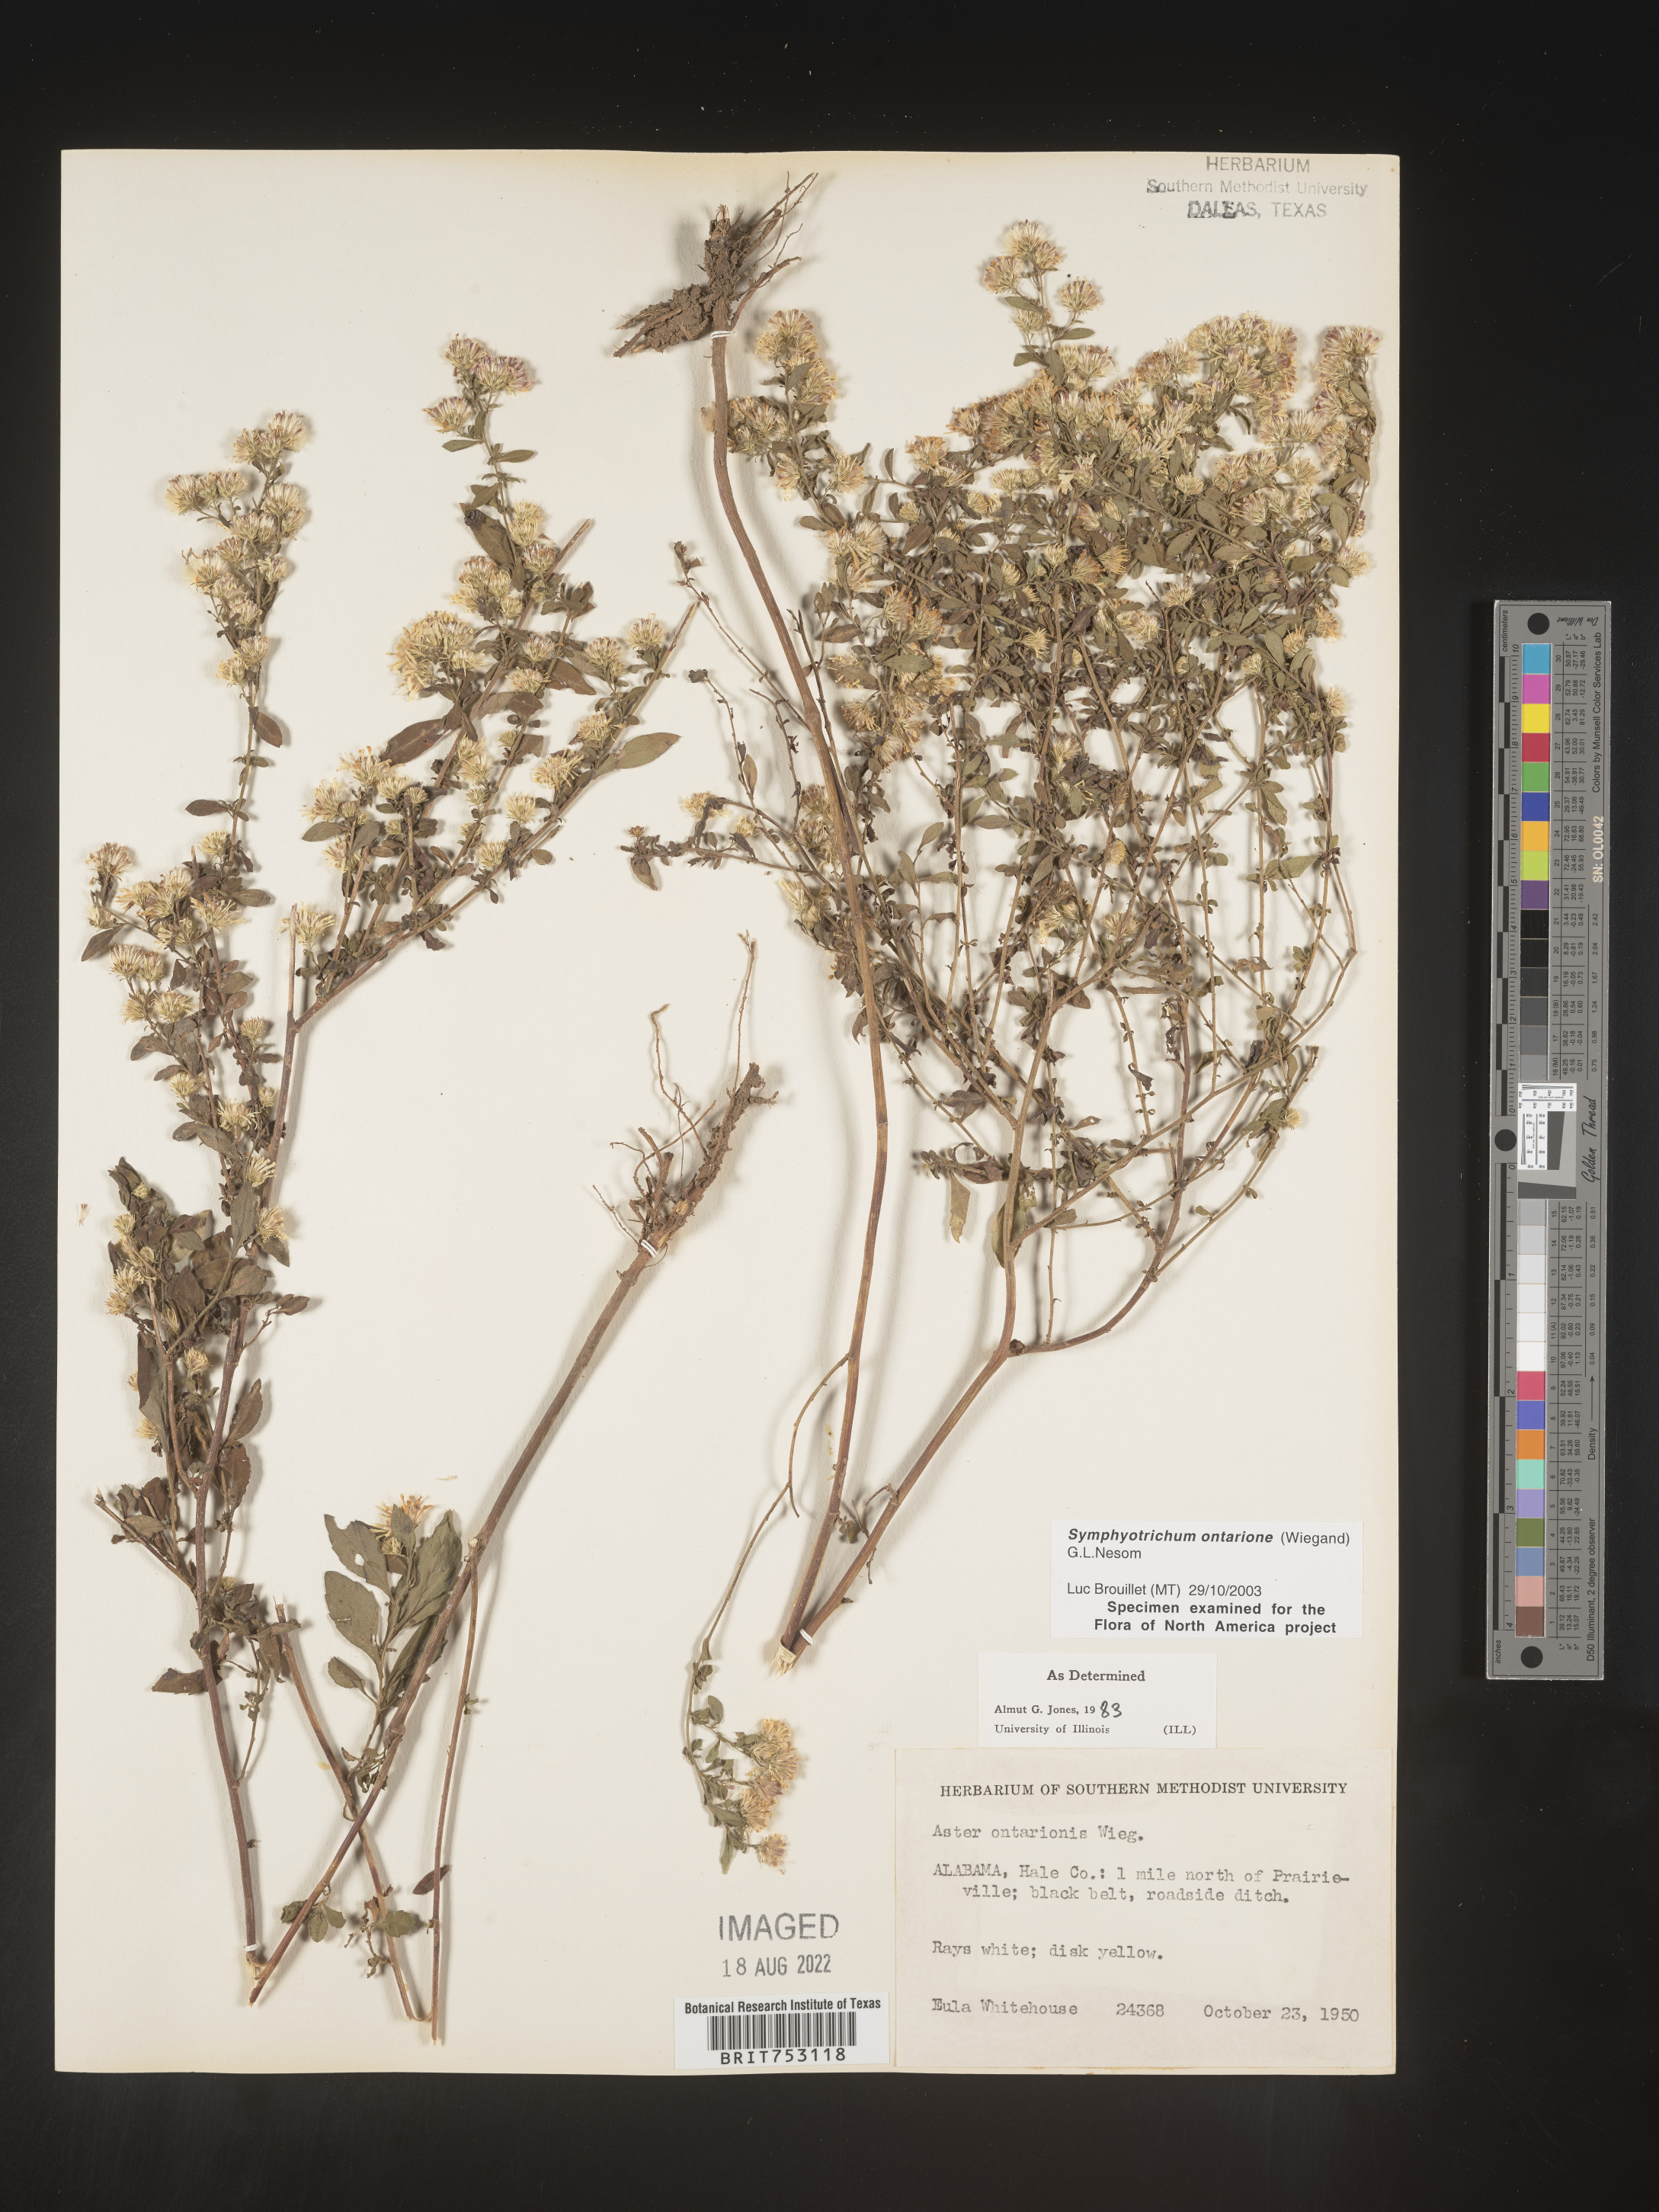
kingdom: Plantae
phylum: Tracheophyta
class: Magnoliopsida
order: Asterales
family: Asteraceae
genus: Symphyotrichum
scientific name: Symphyotrichum ontarionis
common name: Bottomland aster
